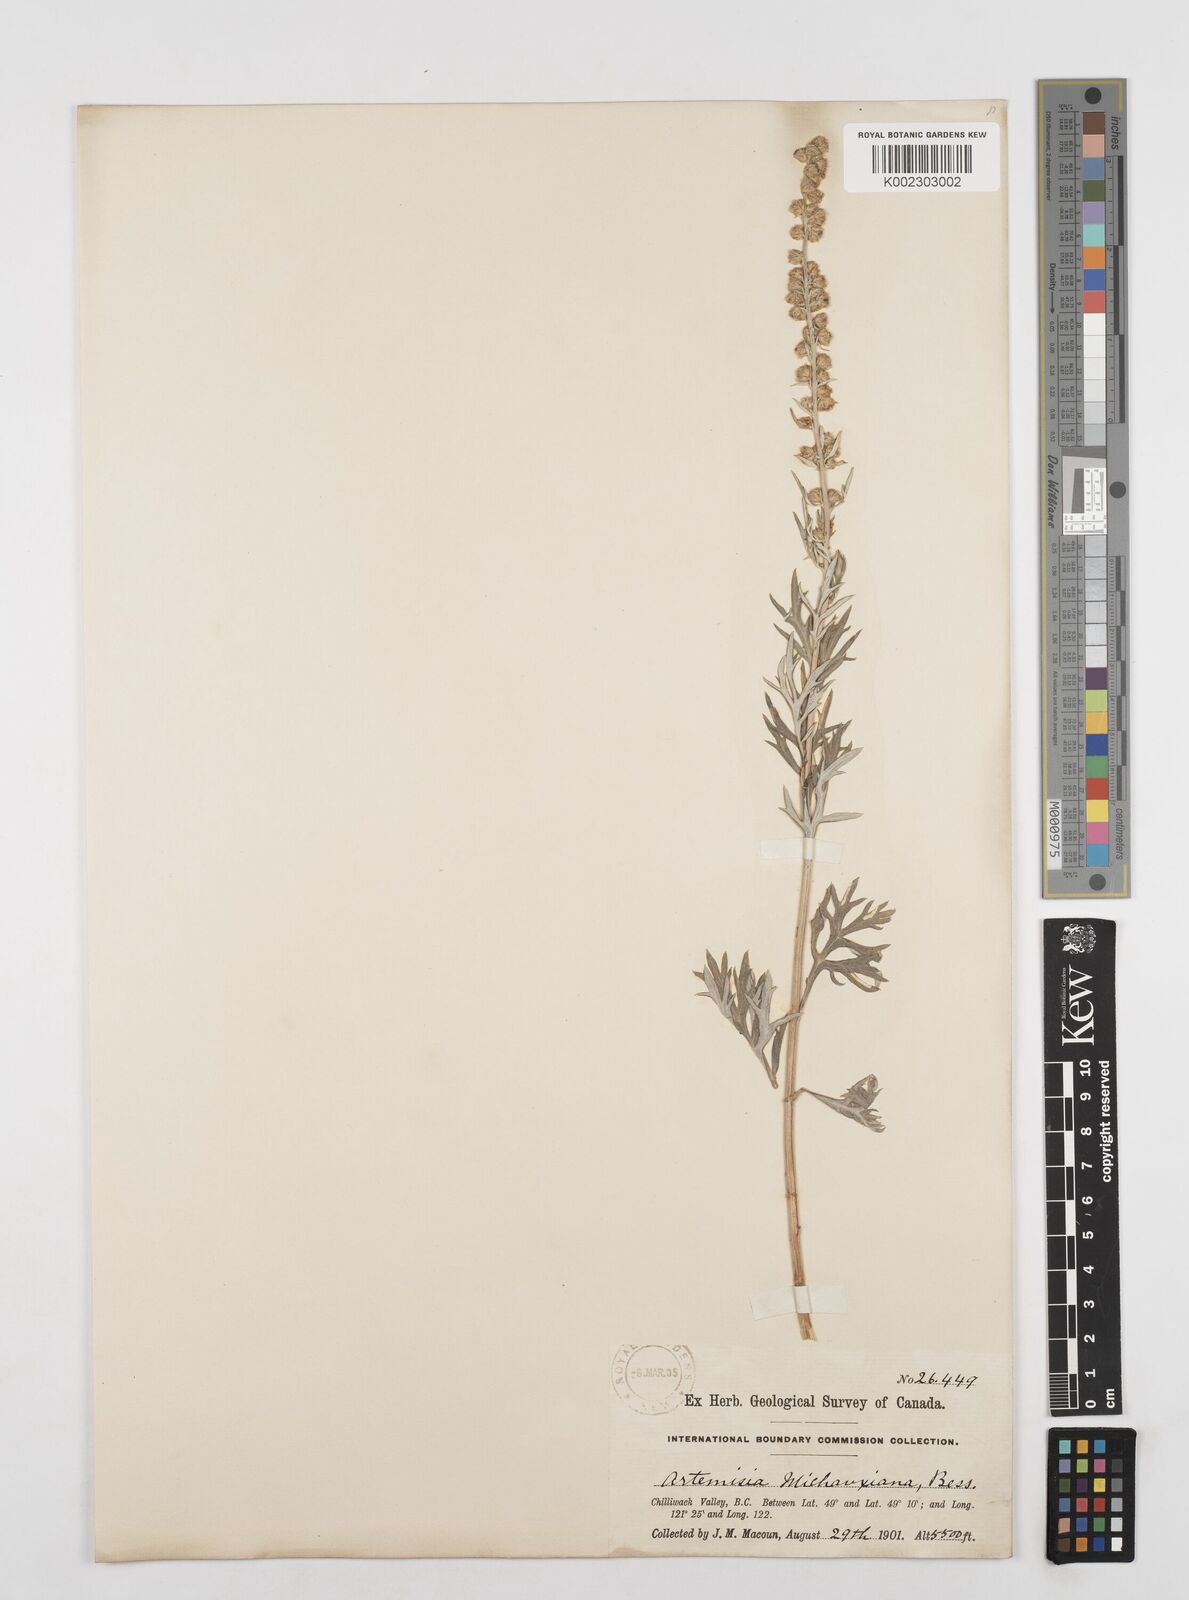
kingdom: Plantae
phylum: Tracheophyta
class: Magnoliopsida
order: Asterales
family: Asteraceae
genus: Artemisia
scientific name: Artemisia michauxiana
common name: Lemon sagewort
